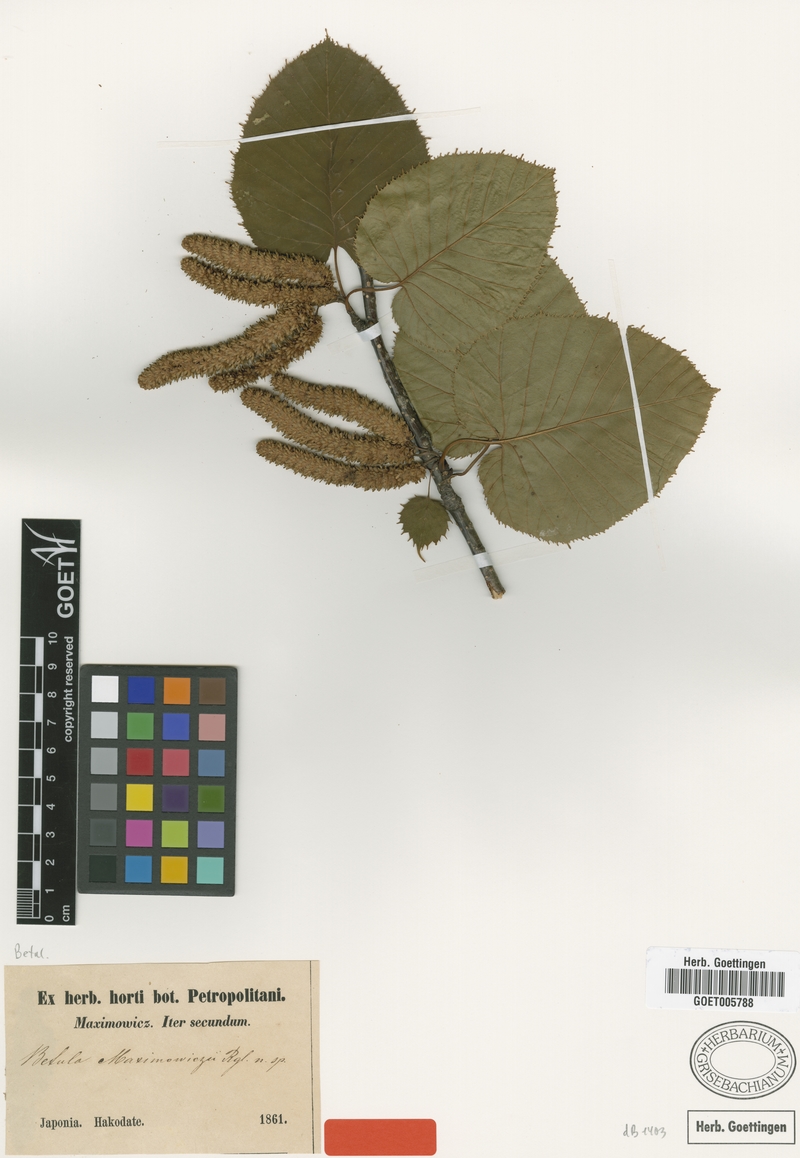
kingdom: Plantae
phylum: Tracheophyta
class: Magnoliopsida
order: Fagales
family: Betulaceae
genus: Betula
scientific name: Betula maximowicziana
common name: Monarch birch
